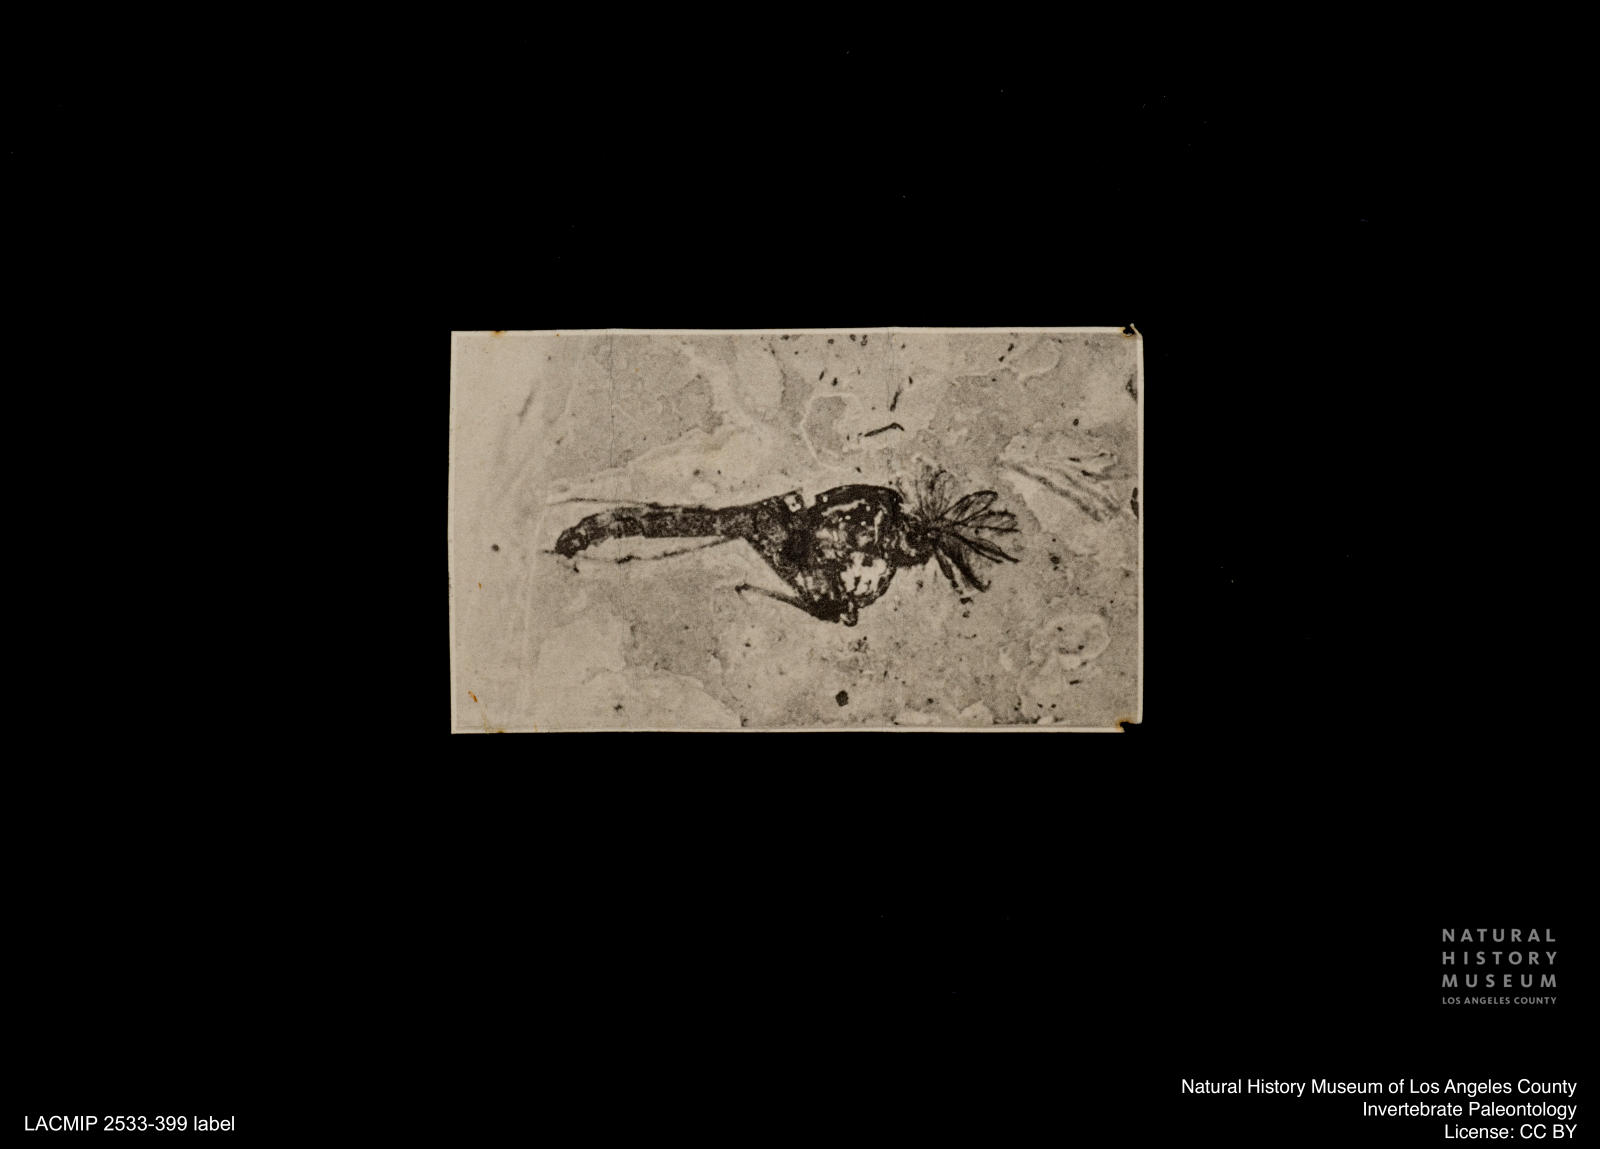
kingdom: Animalia
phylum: Arthropoda
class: Insecta
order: Diptera
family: Chironomidae
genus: Orthocladius
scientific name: Orthocladius
